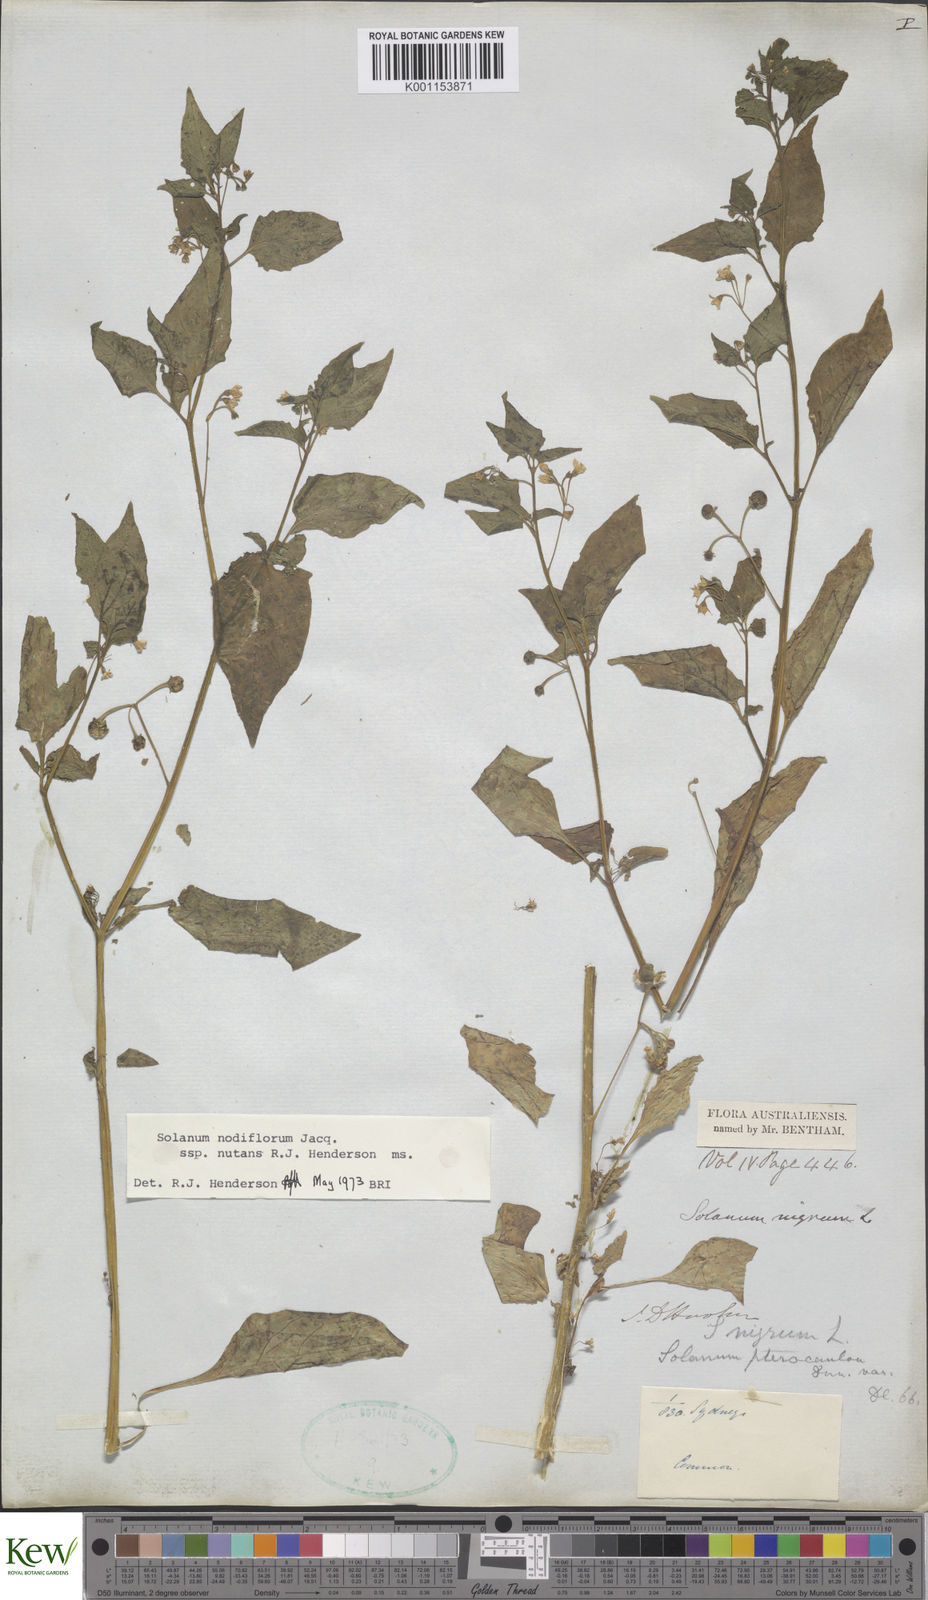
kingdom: Plantae
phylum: Tracheophyta
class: Magnoliopsida
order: Solanales
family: Solanaceae
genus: Solanum
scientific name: Solanum americanum
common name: American black nightshade
